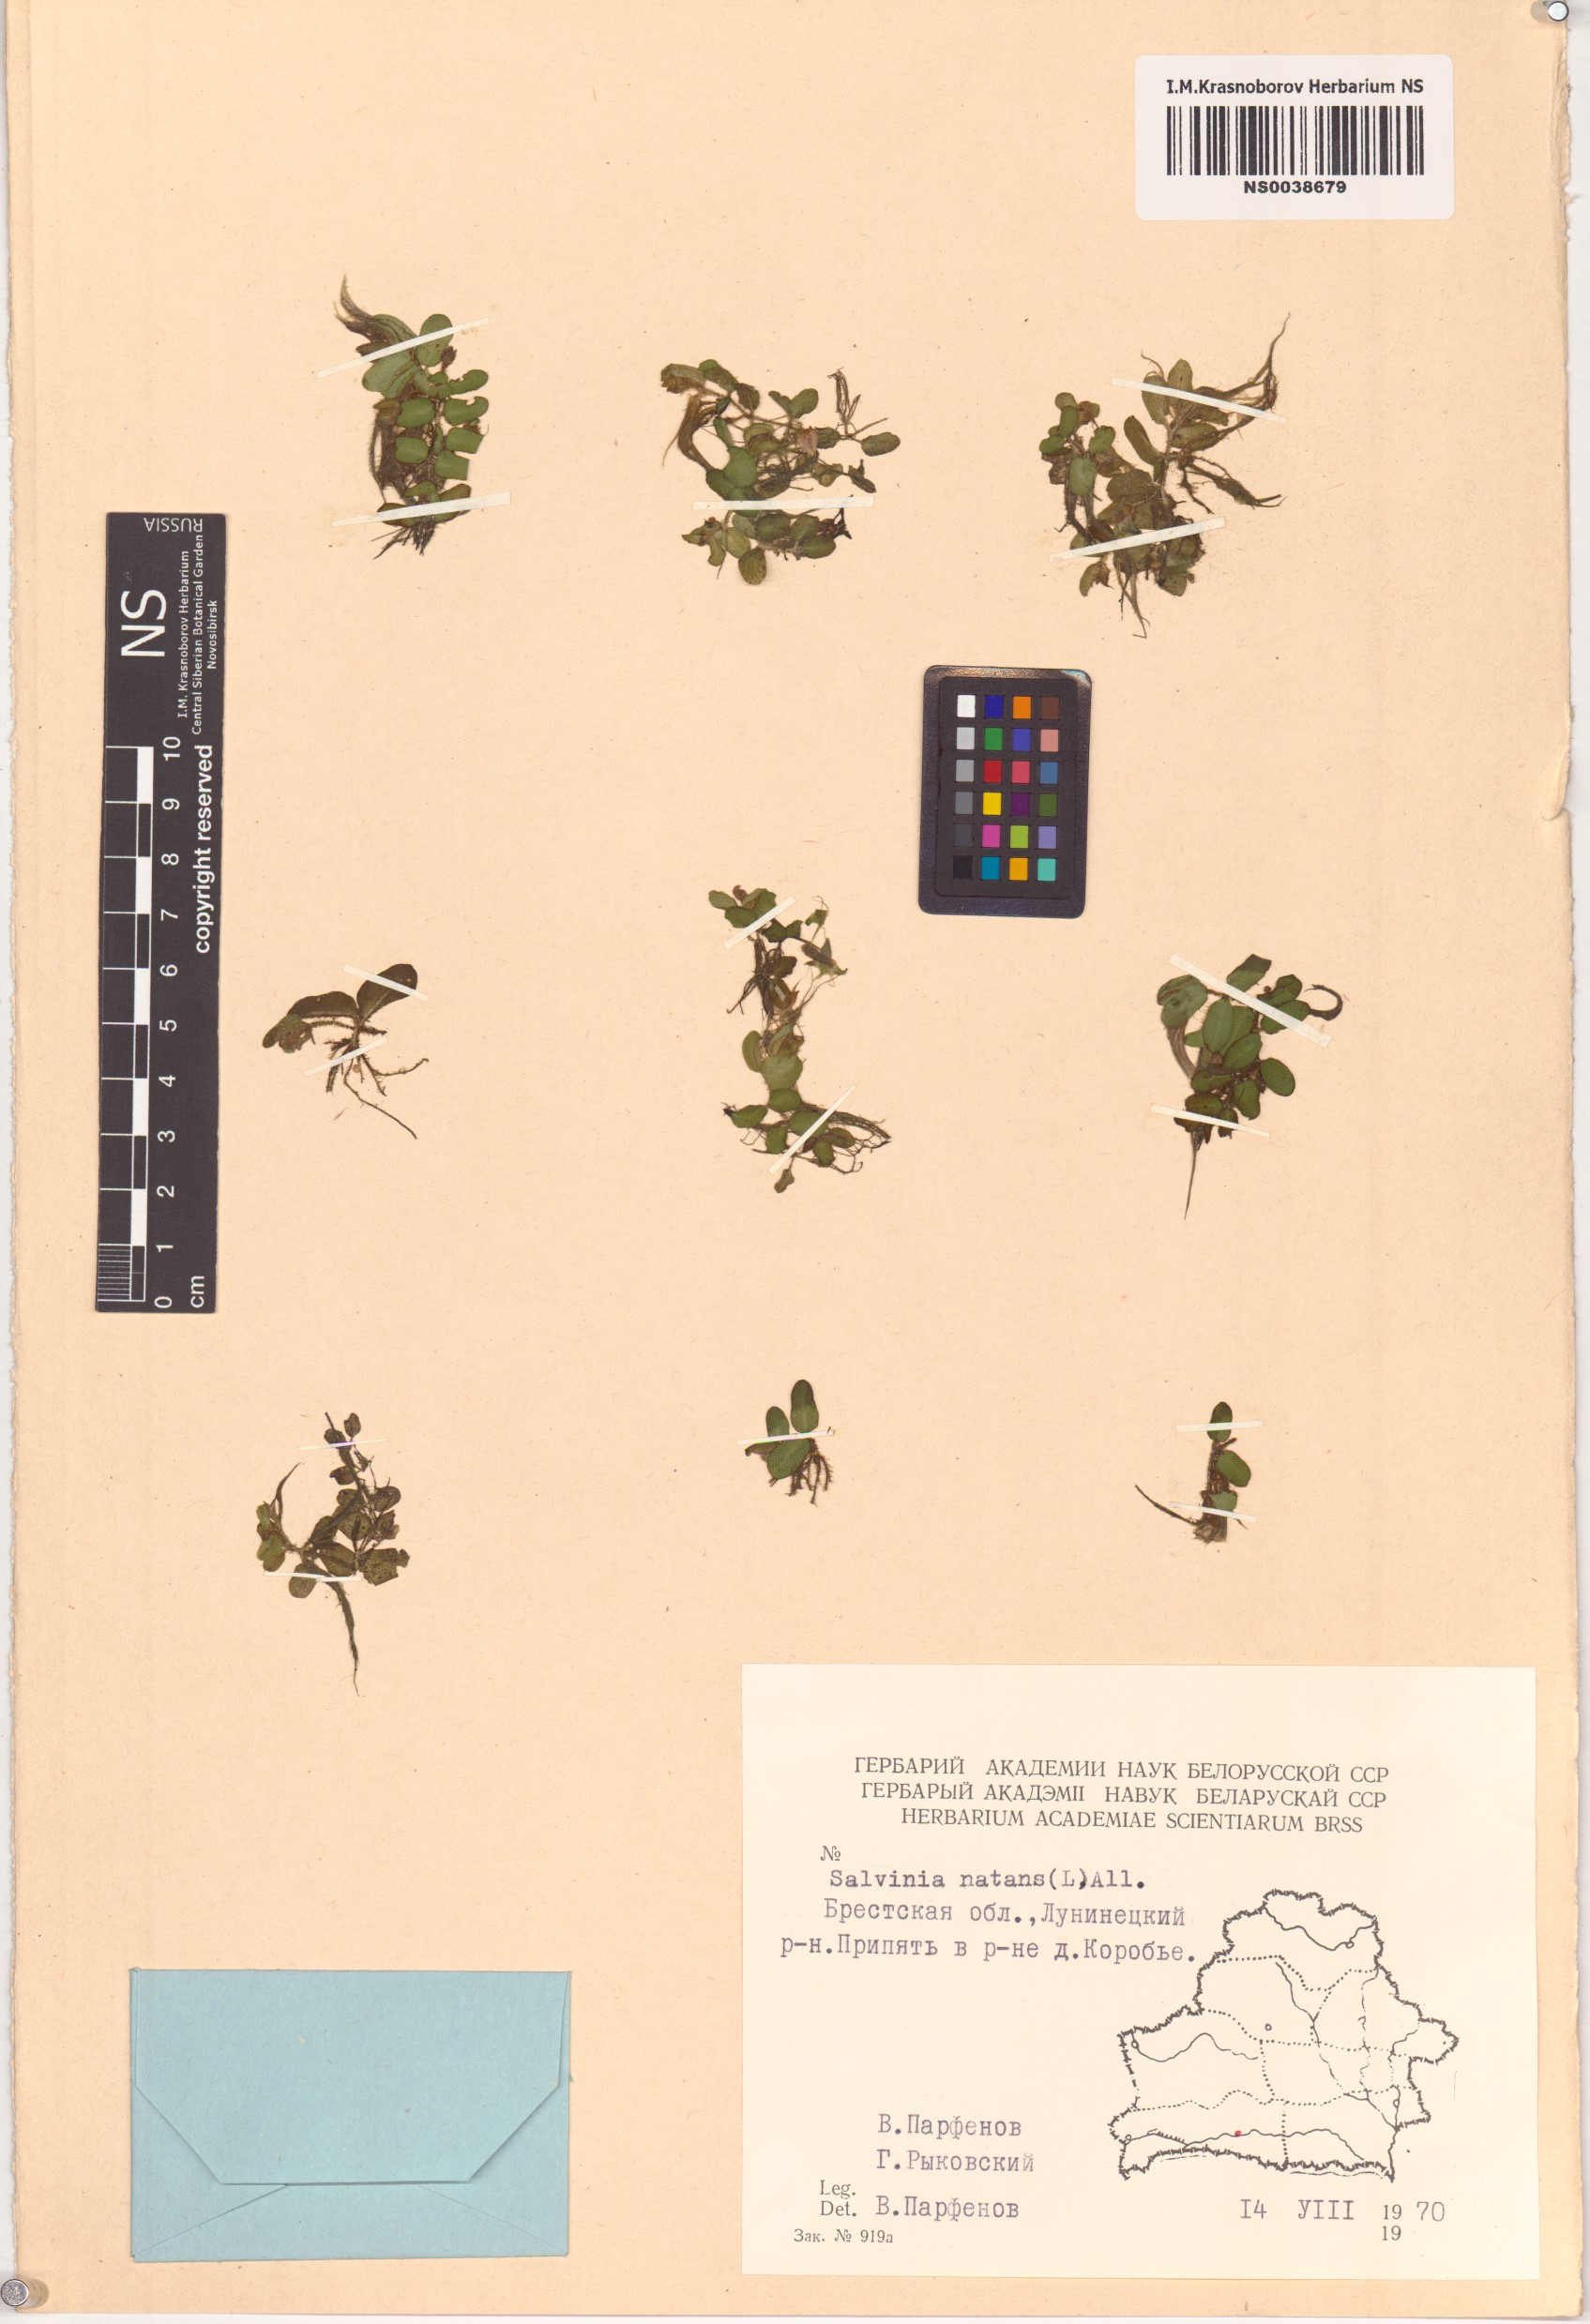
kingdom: Plantae
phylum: Tracheophyta
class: Polypodiopsida
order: Salviniales
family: Salviniaceae
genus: Salvinia
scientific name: Salvinia natans
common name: Floating fern
